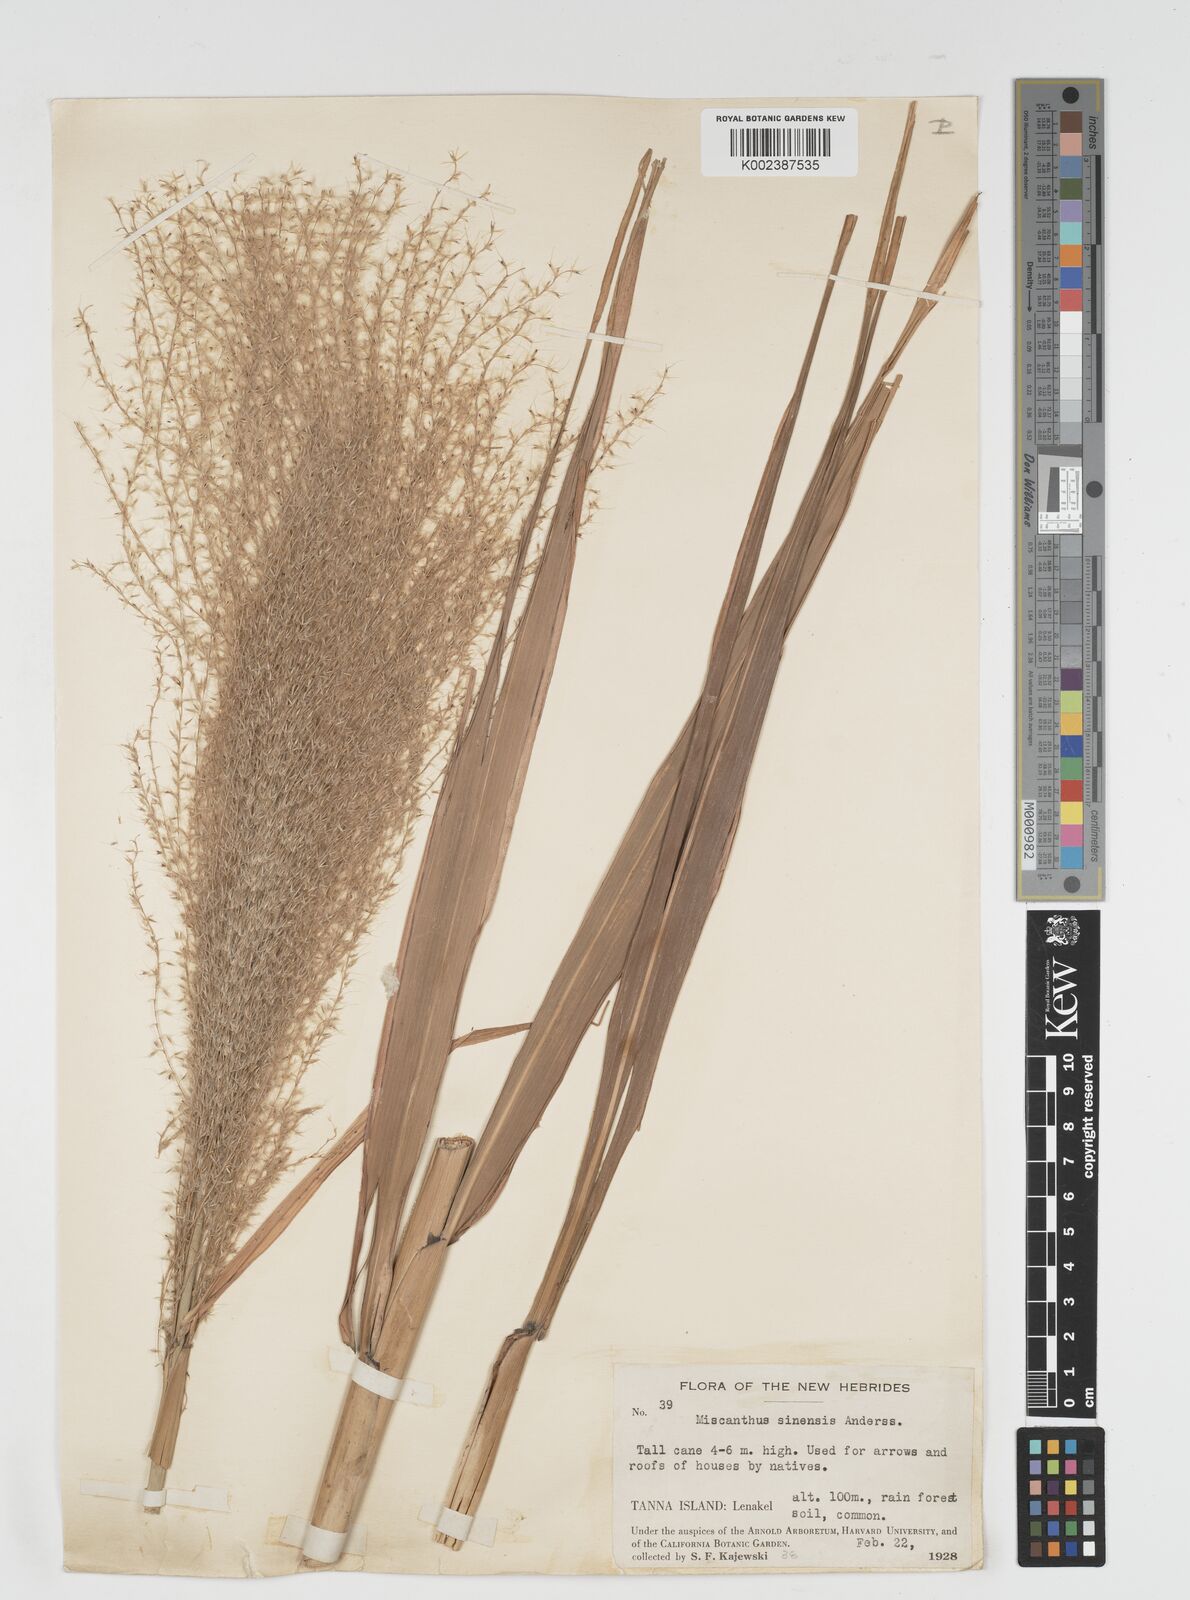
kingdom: Plantae
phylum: Tracheophyta
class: Liliopsida
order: Poales
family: Poaceae
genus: Miscanthus
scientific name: Miscanthus
